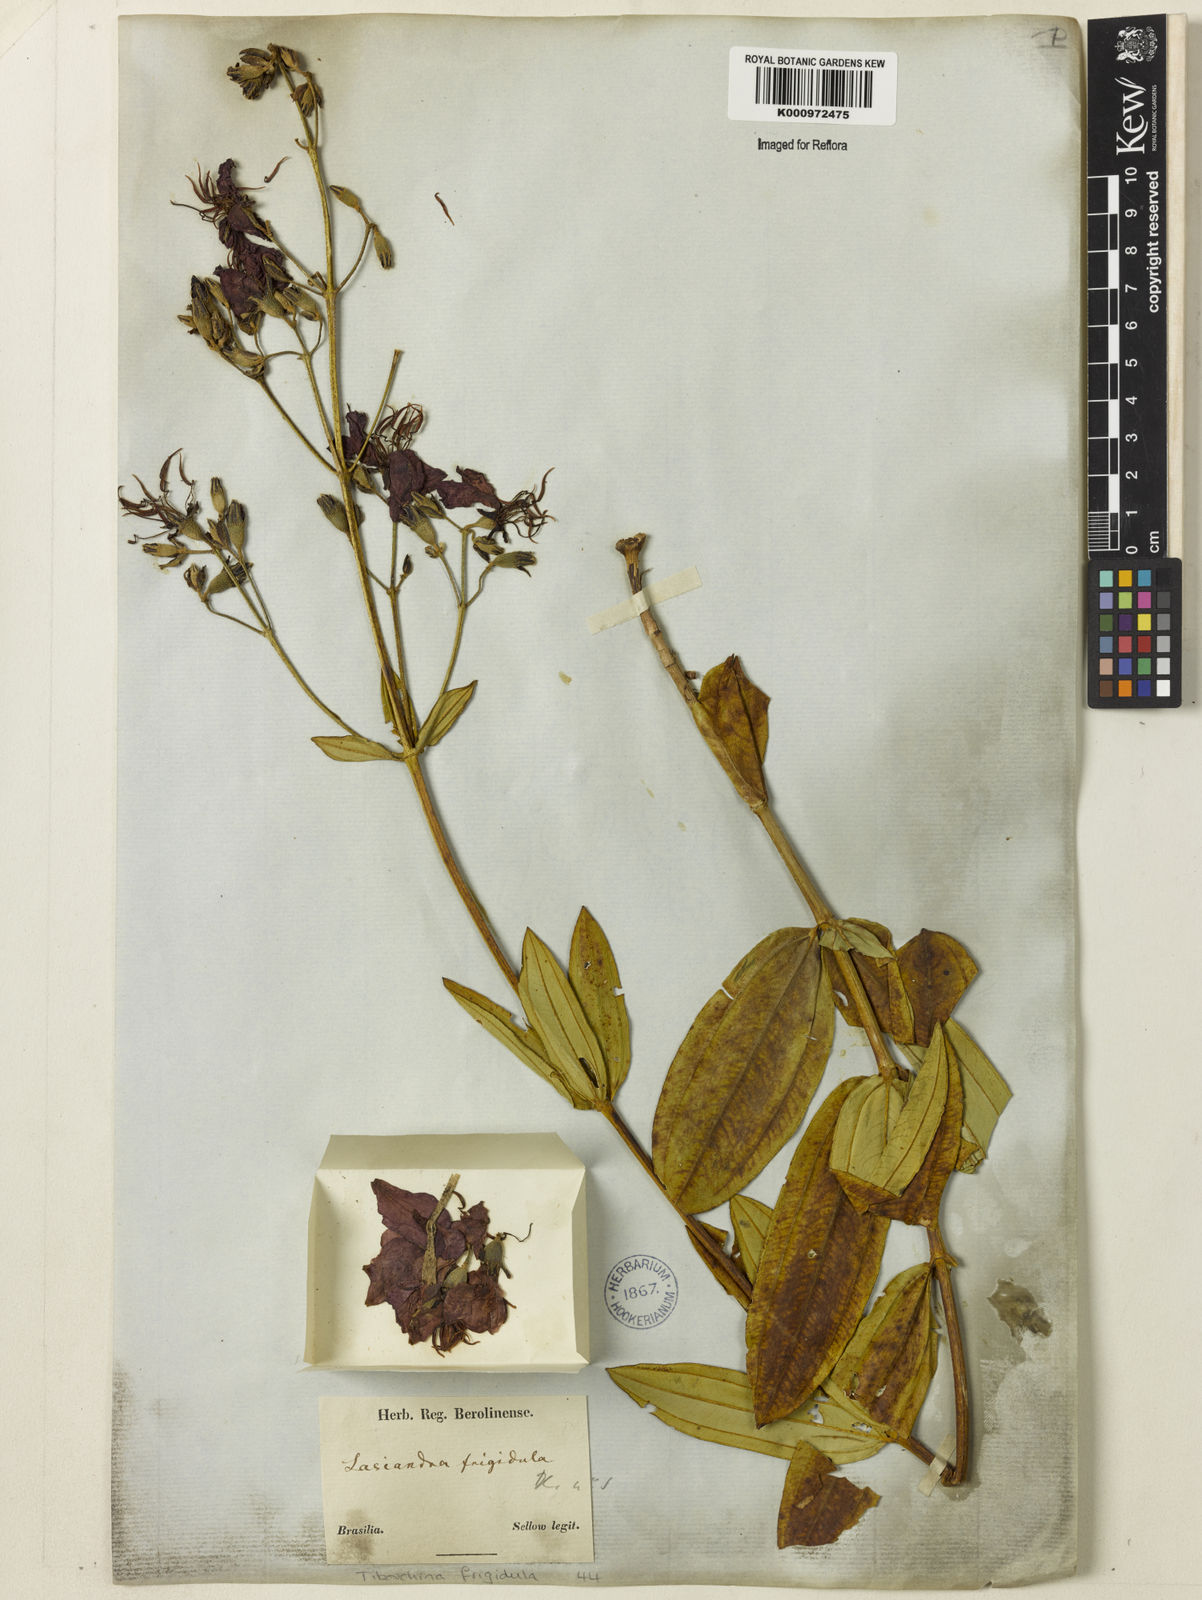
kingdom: Plantae
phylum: Tracheophyta
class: Magnoliopsida
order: Myrtales
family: Melastomataceae
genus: Pleroma
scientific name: Pleroma martiusianum
